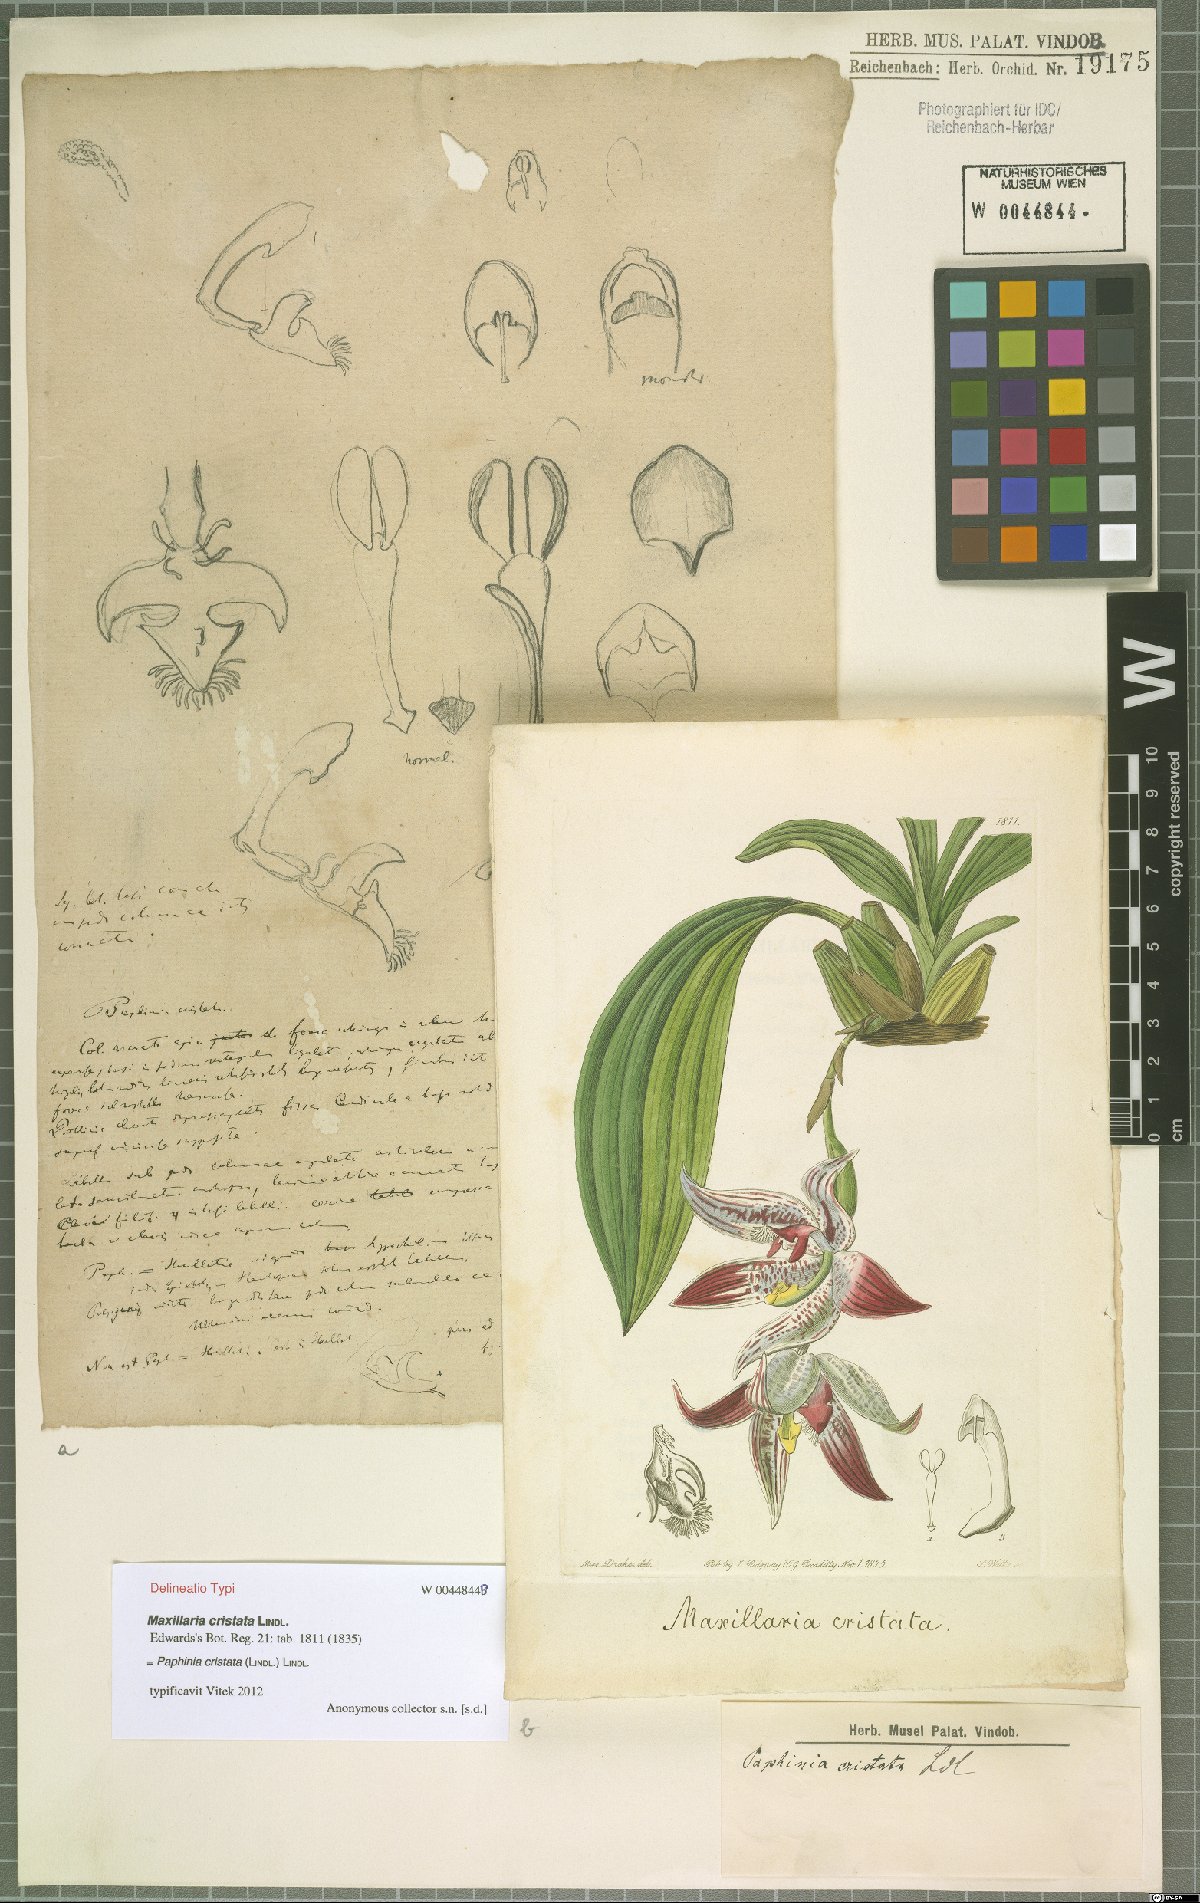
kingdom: Plantae
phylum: Tracheophyta
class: Liliopsida
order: Asparagales
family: Orchidaceae
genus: Paphinia
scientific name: Paphinia cristata
